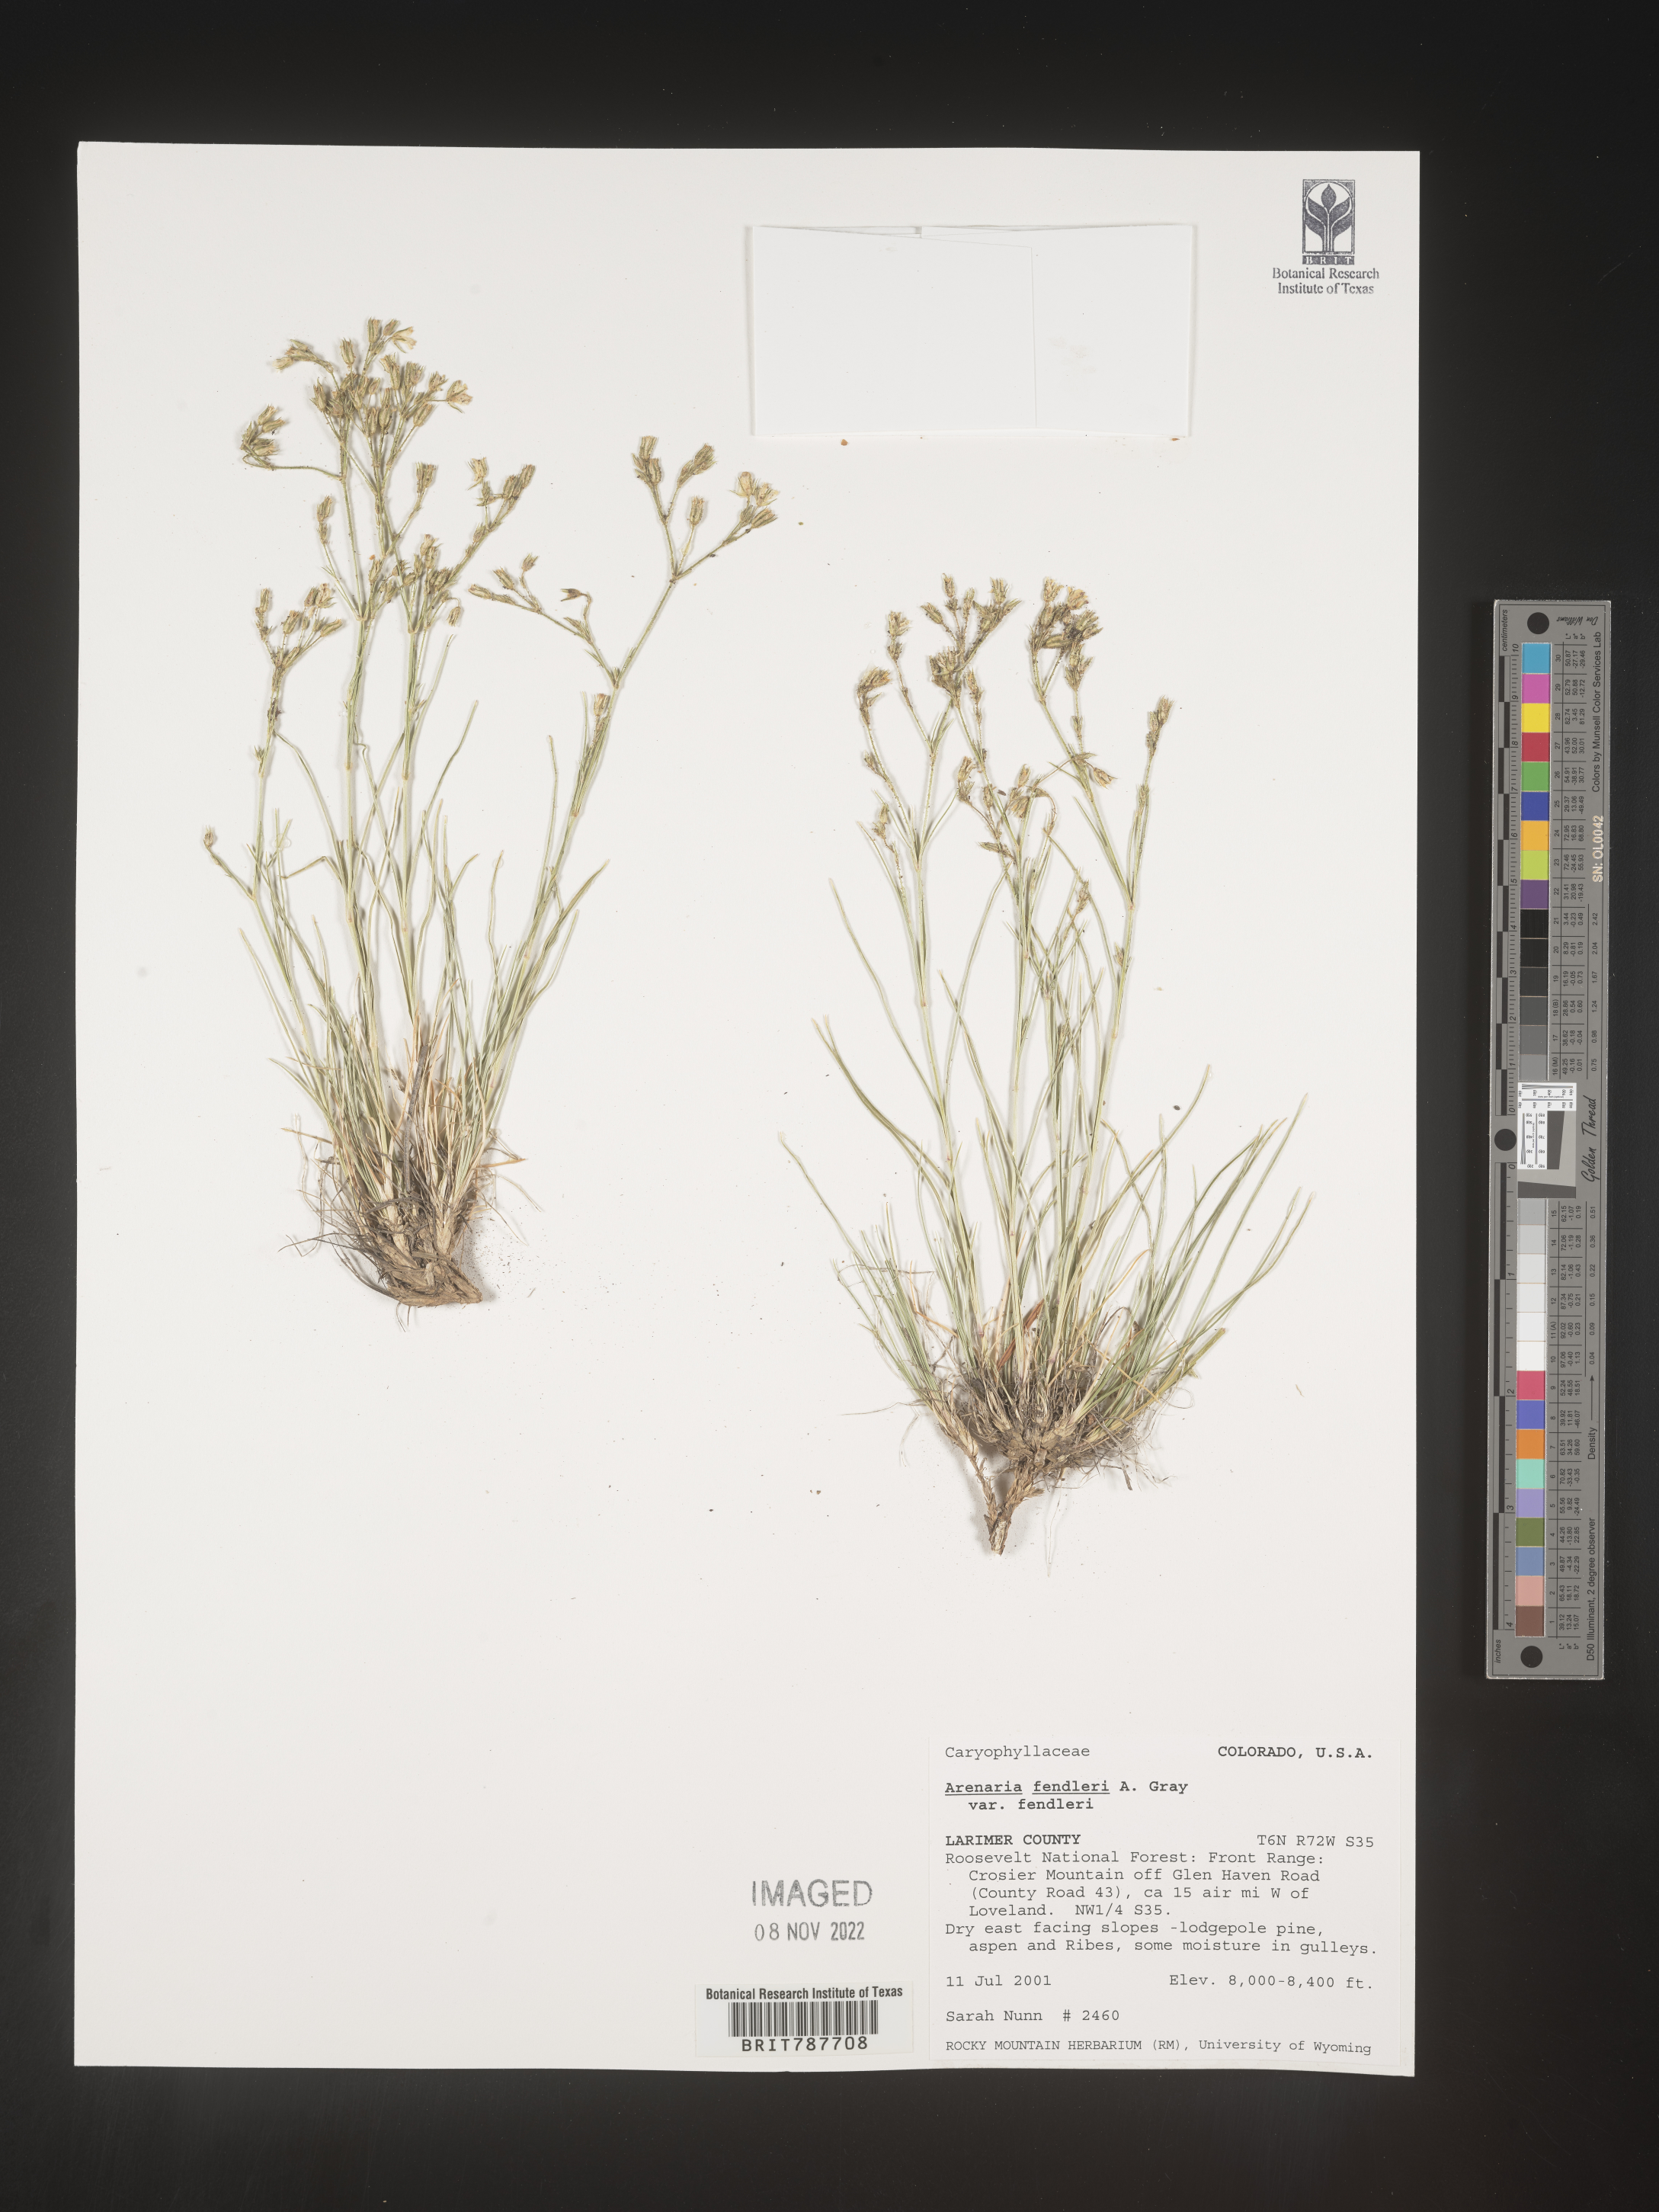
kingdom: Plantae
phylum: Tracheophyta
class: Magnoliopsida
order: Caryophyllales
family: Caryophyllaceae
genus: Arenaria
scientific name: Arenaria
